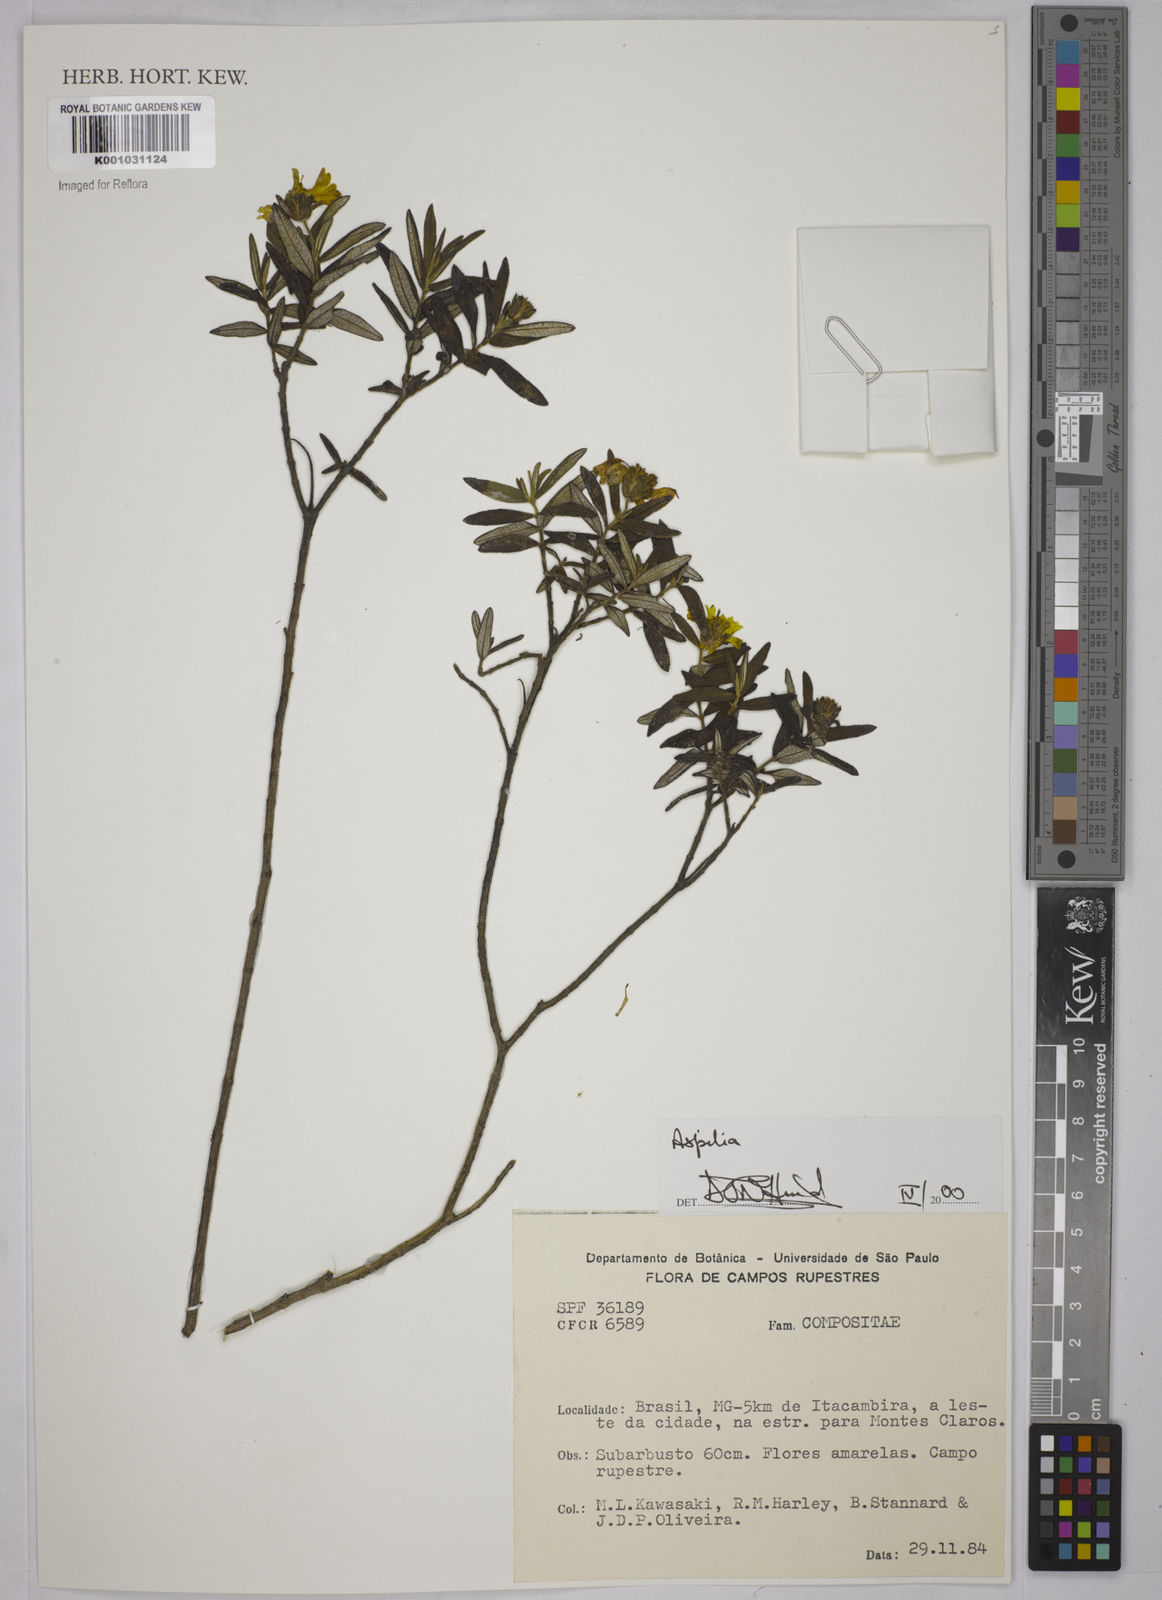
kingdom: Plantae
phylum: Tracheophyta
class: Magnoliopsida
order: Asterales
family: Asteraceae
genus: Aspilia
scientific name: Aspilia
